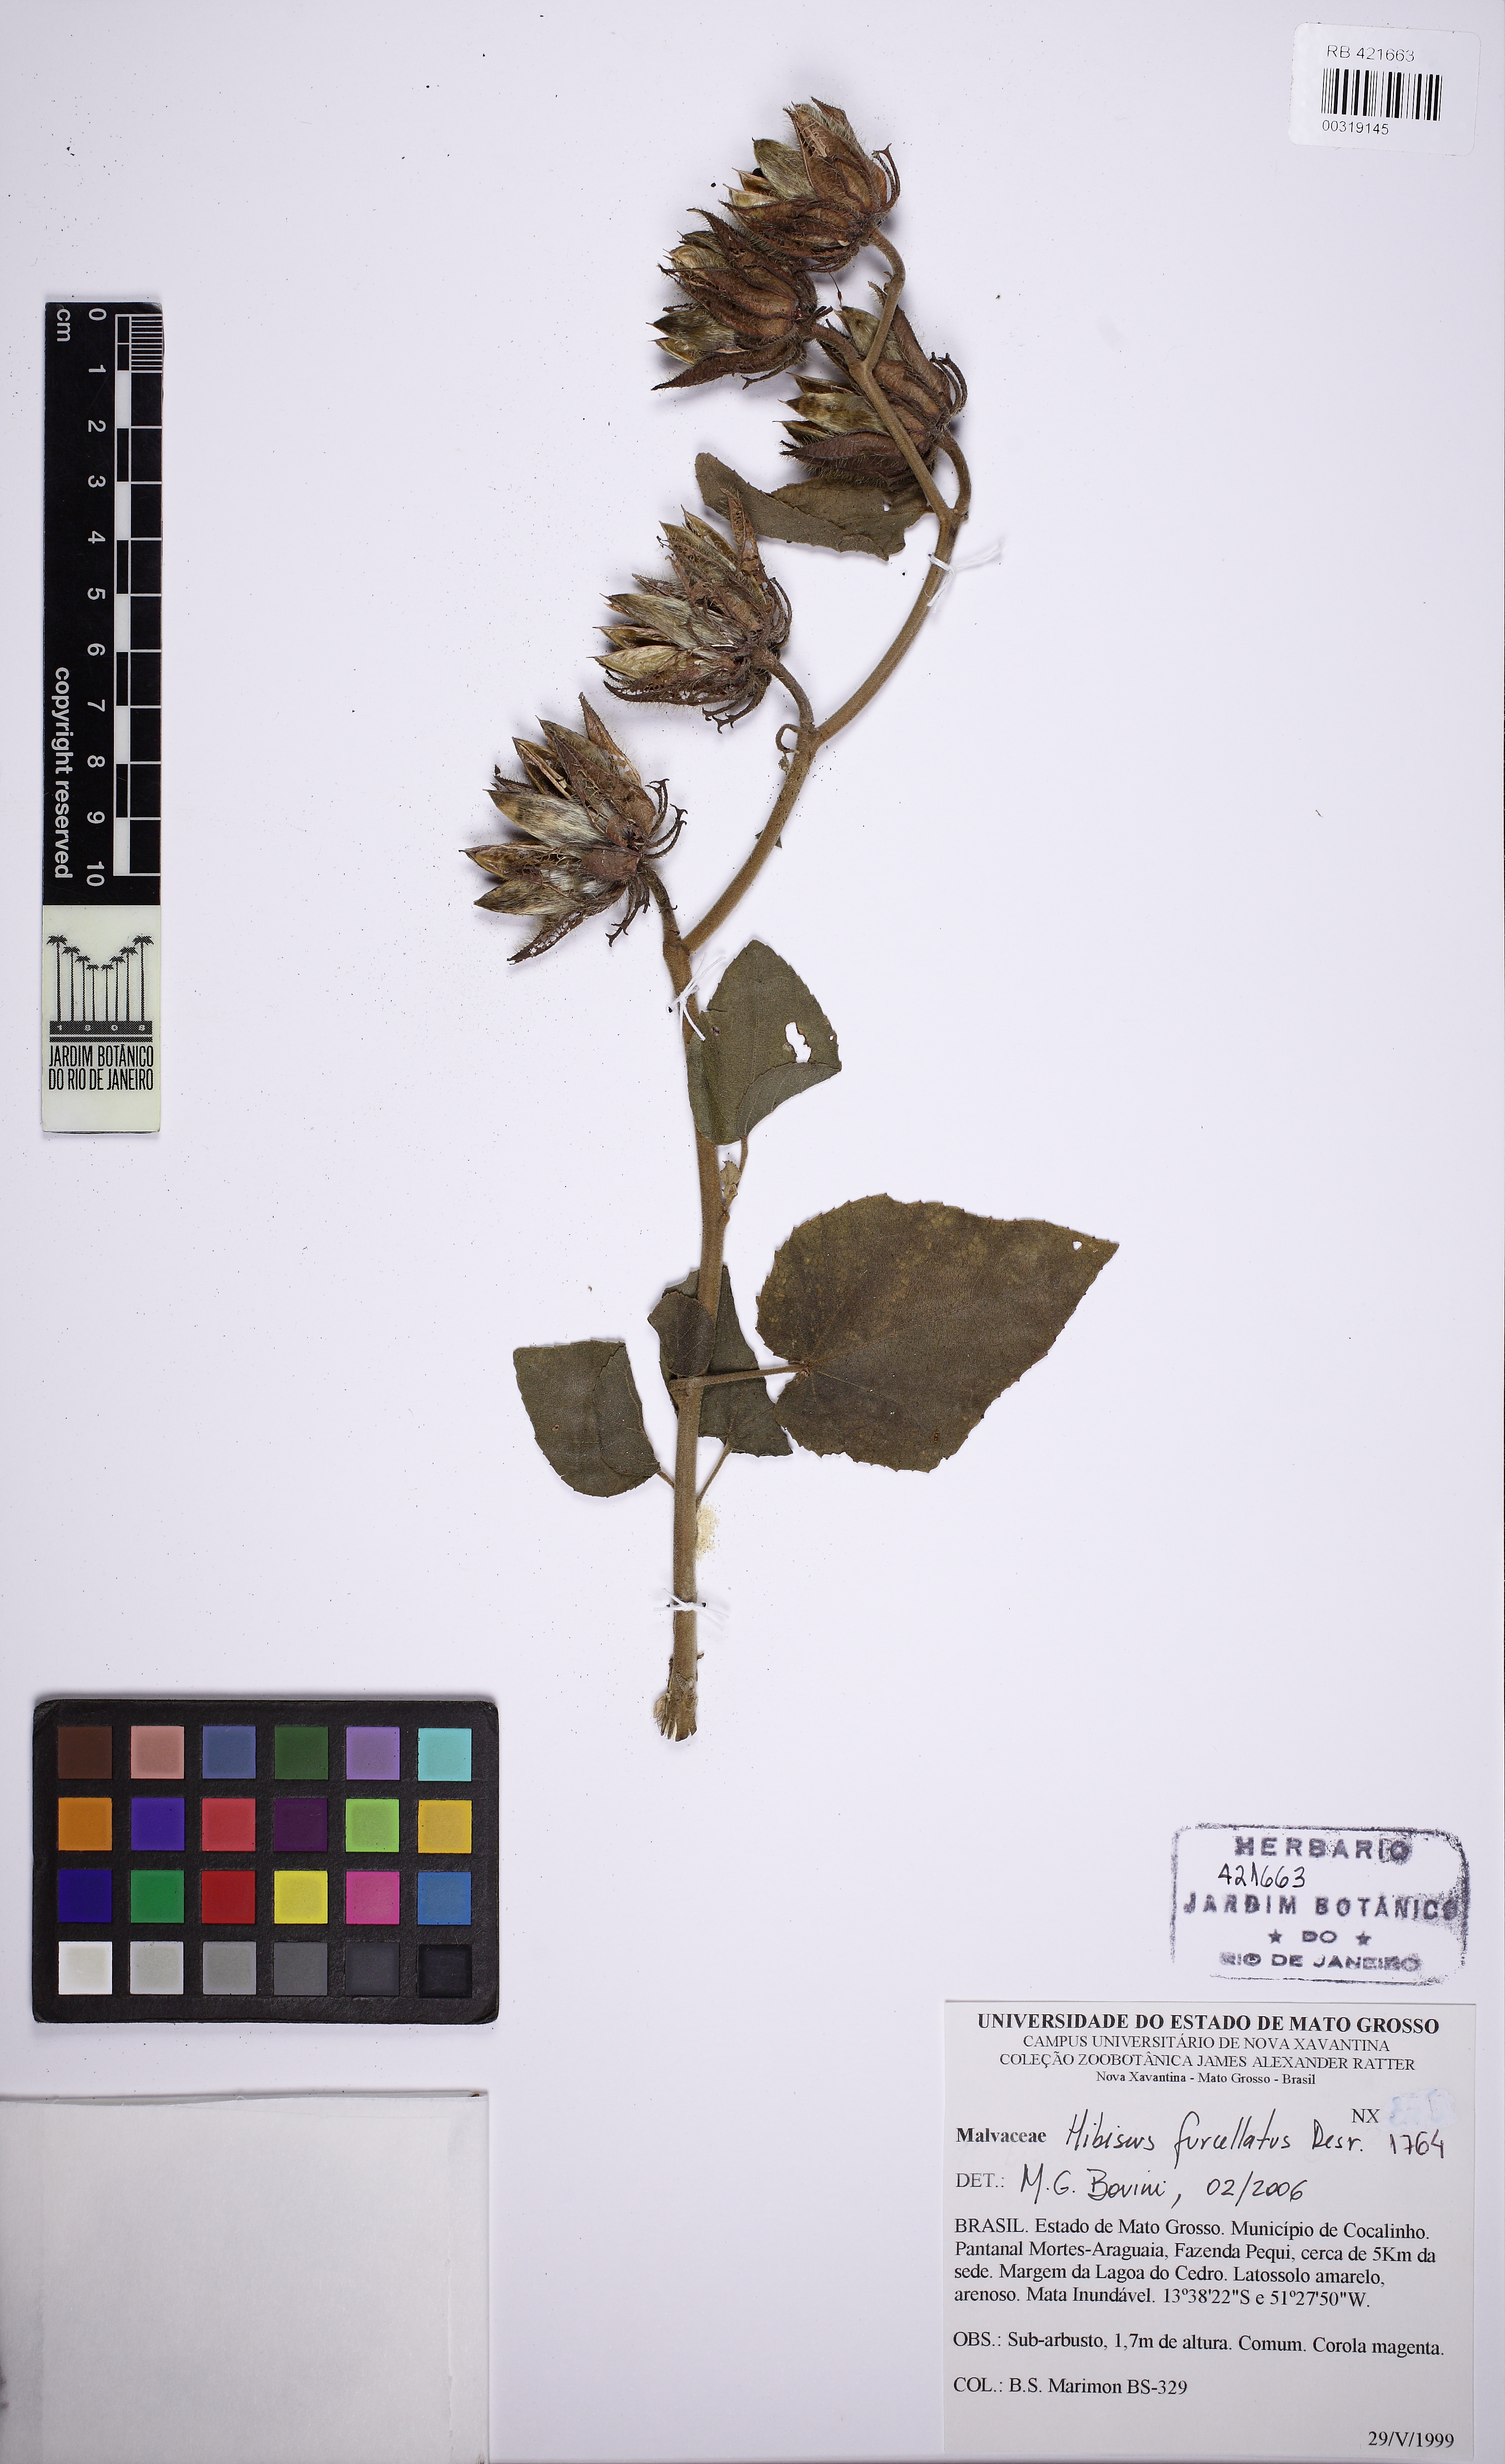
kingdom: Plantae
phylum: Tracheophyta
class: Magnoliopsida
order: Malvales
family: Malvaceae
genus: Hibiscus
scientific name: Hibiscus furcellatus
